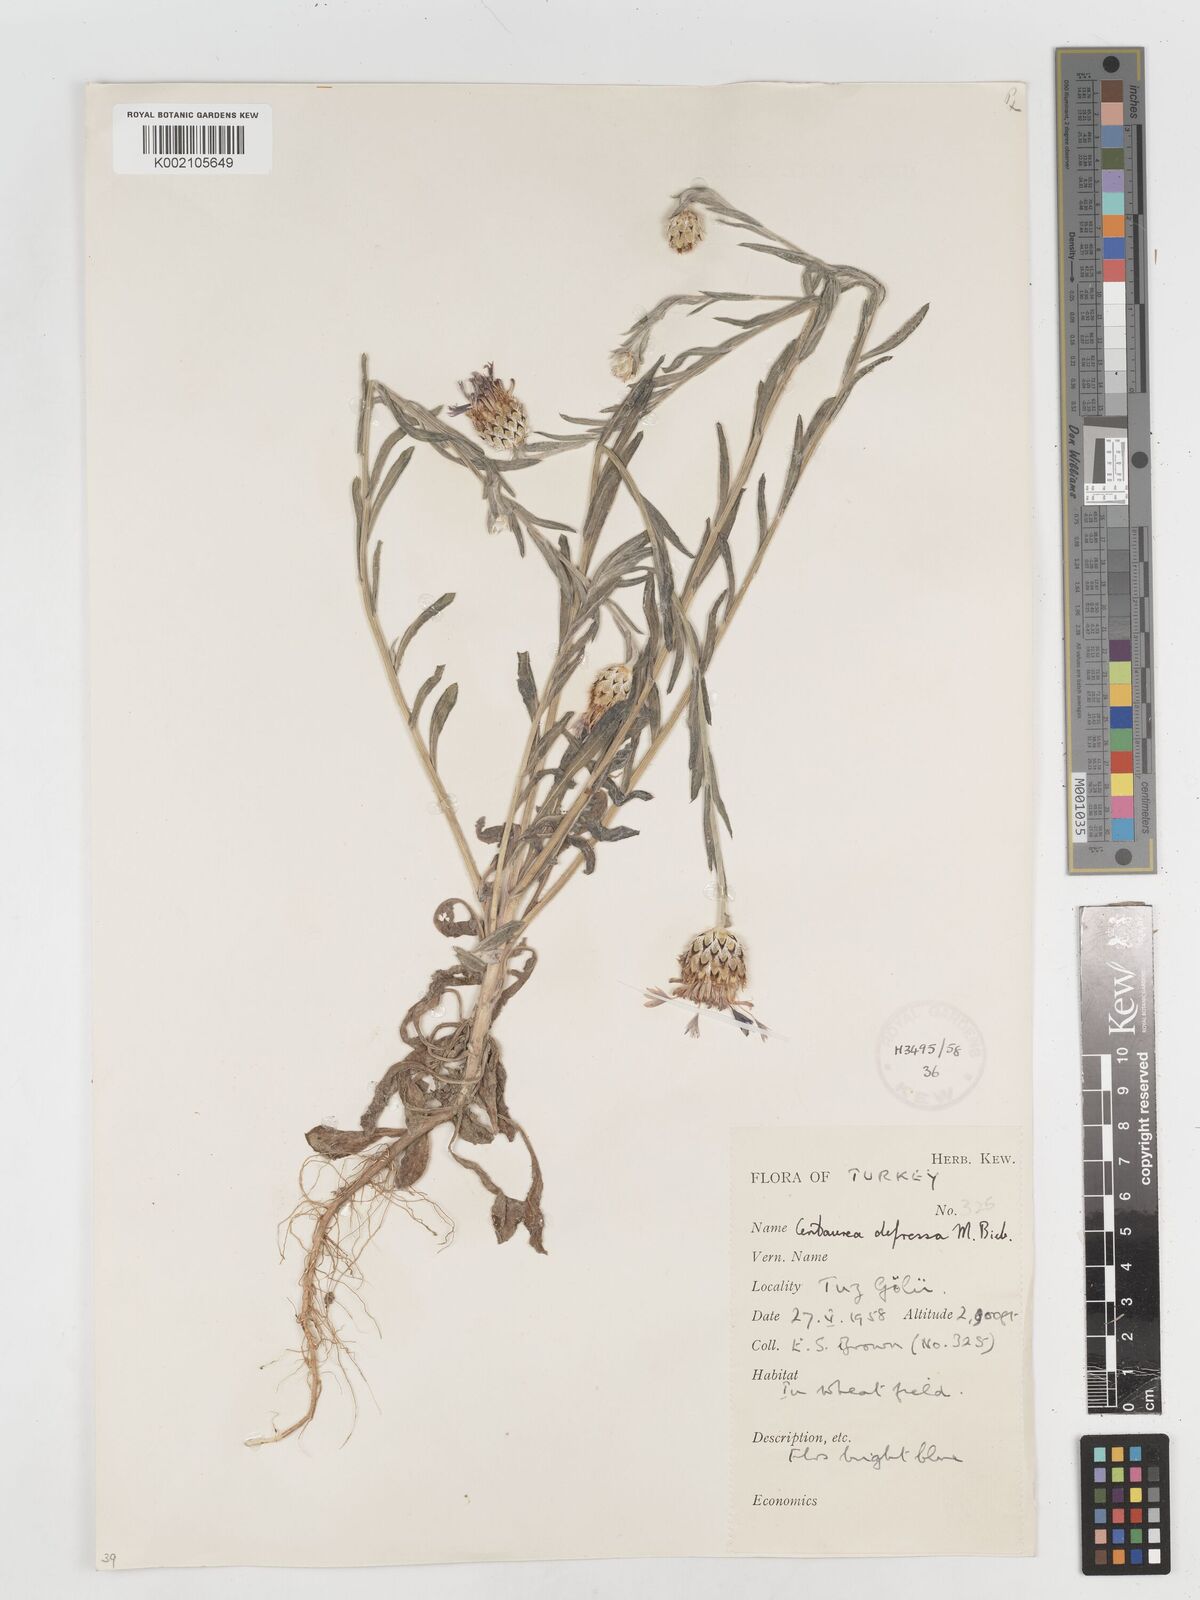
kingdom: Plantae
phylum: Tracheophyta
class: Magnoliopsida
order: Asterales
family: Asteraceae
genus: Centaurea
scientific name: Centaurea depressa
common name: Iranian knapweed
